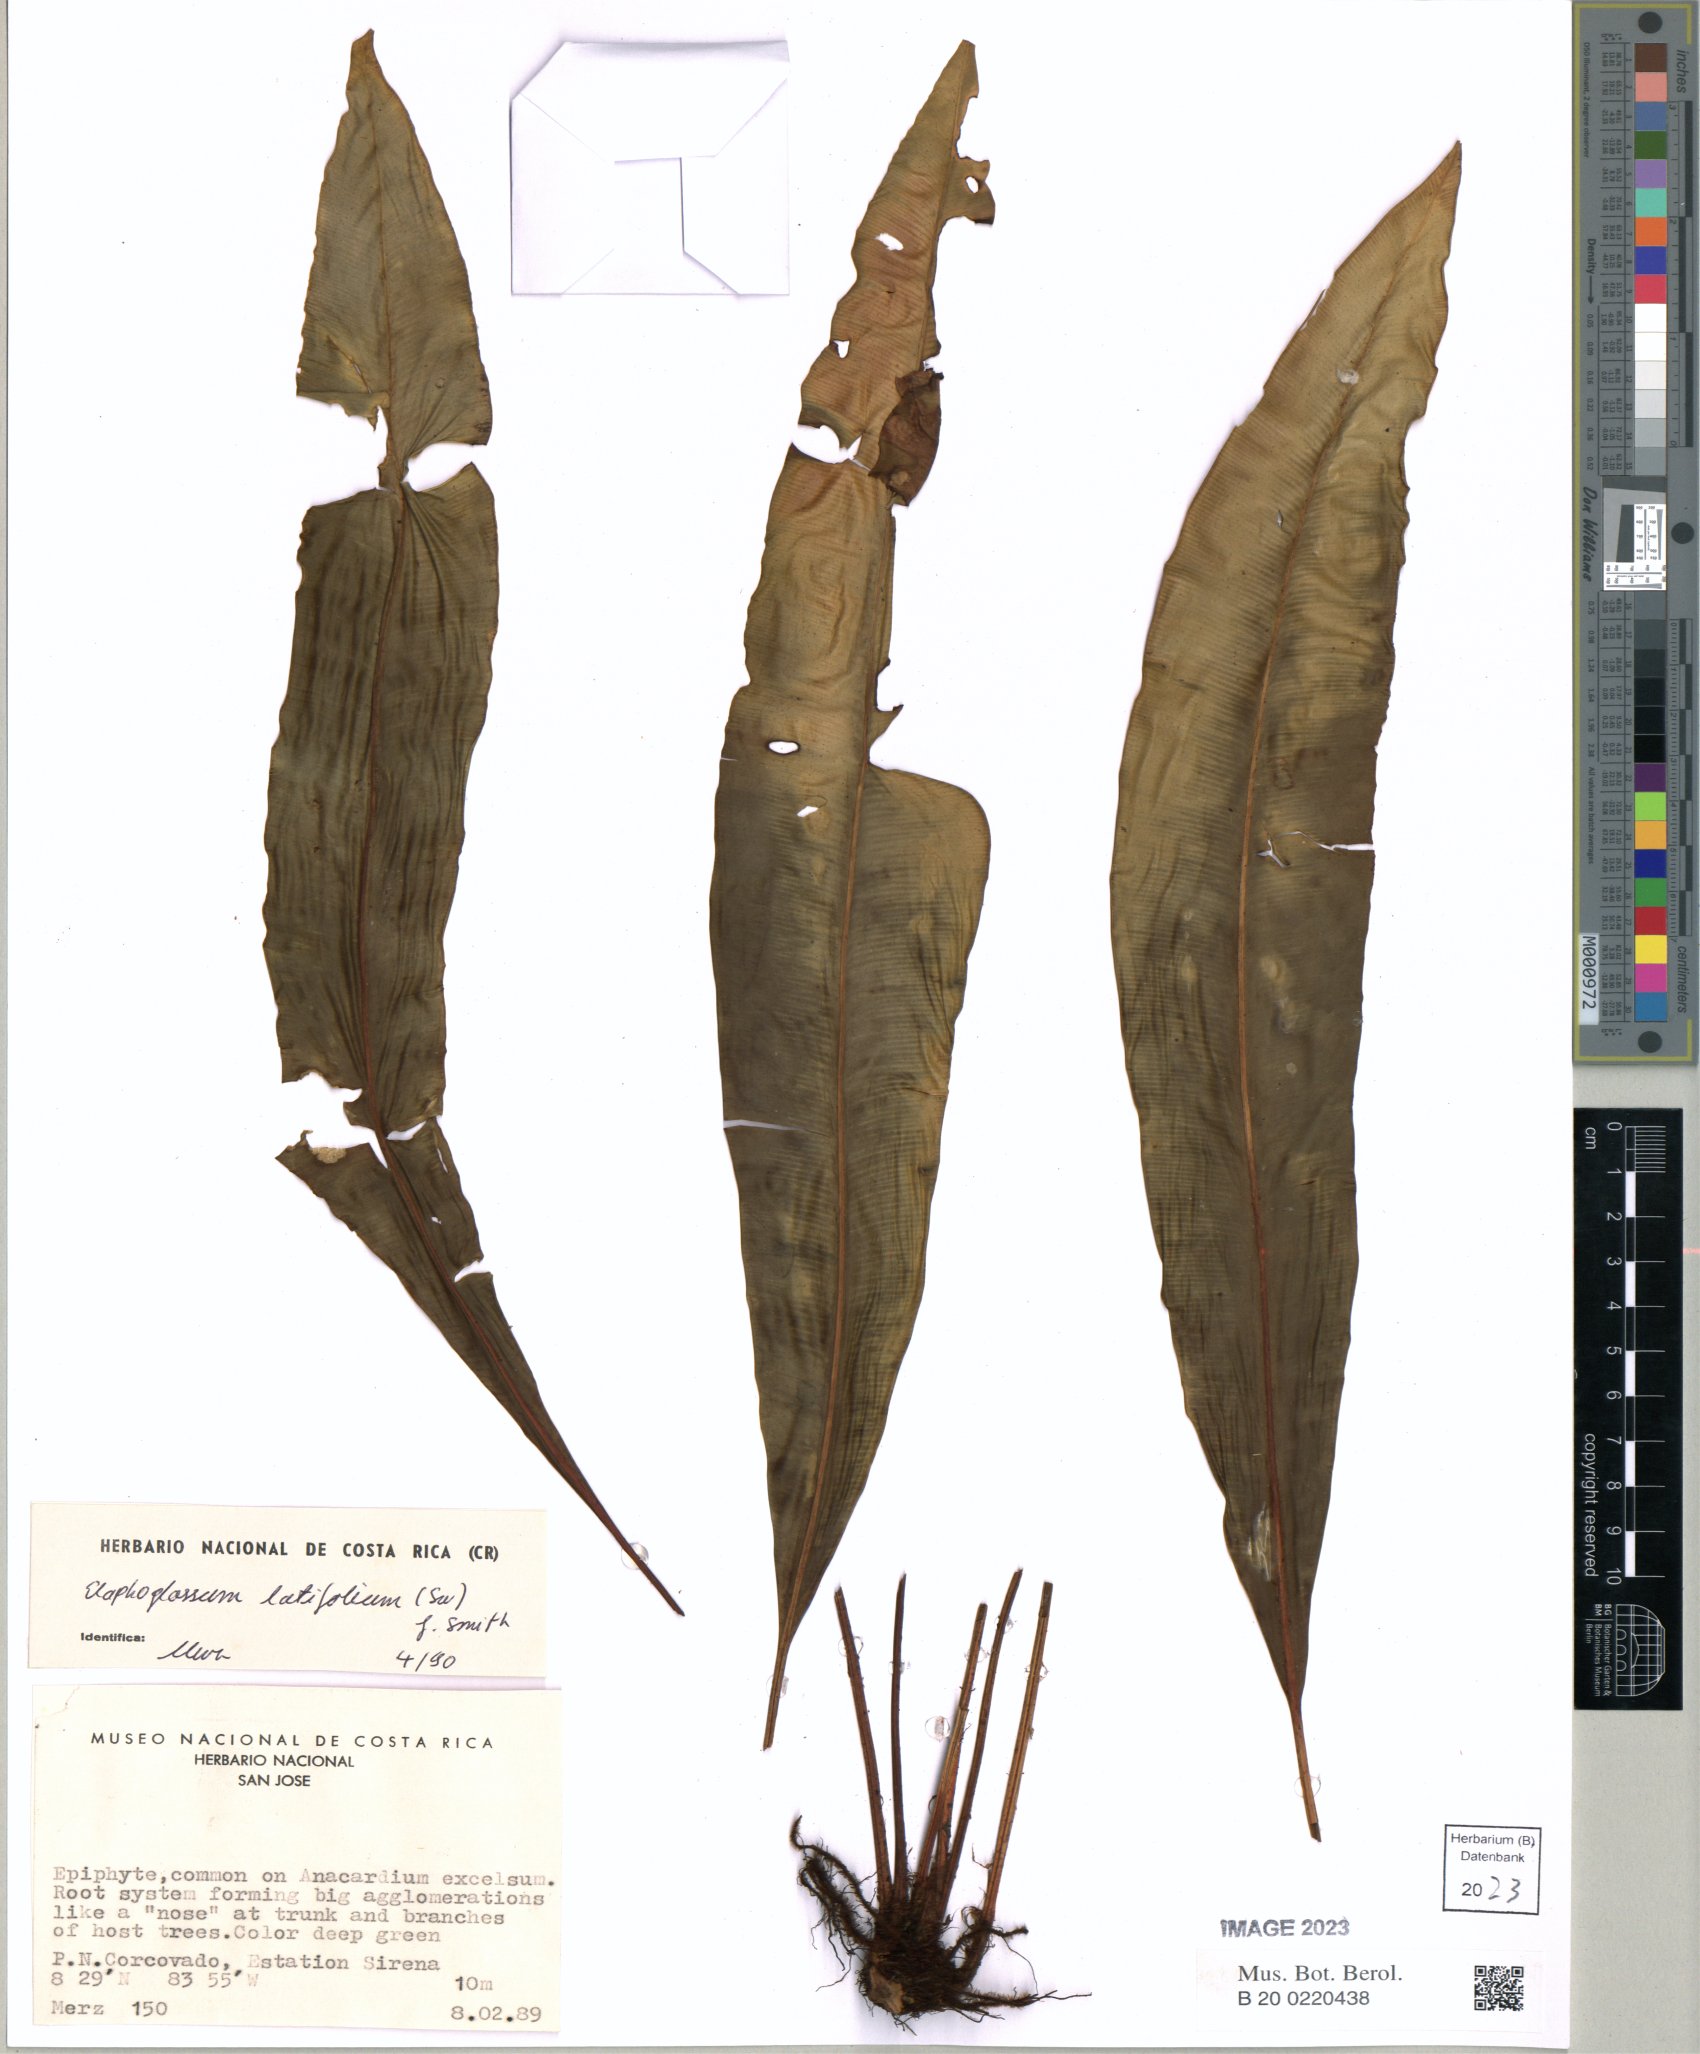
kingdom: Plantae
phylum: Tracheophyta
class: Polypodiopsida
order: Polypodiales
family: Dryopteridaceae
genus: Elaphoglossum
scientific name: Elaphoglossum latifolium
